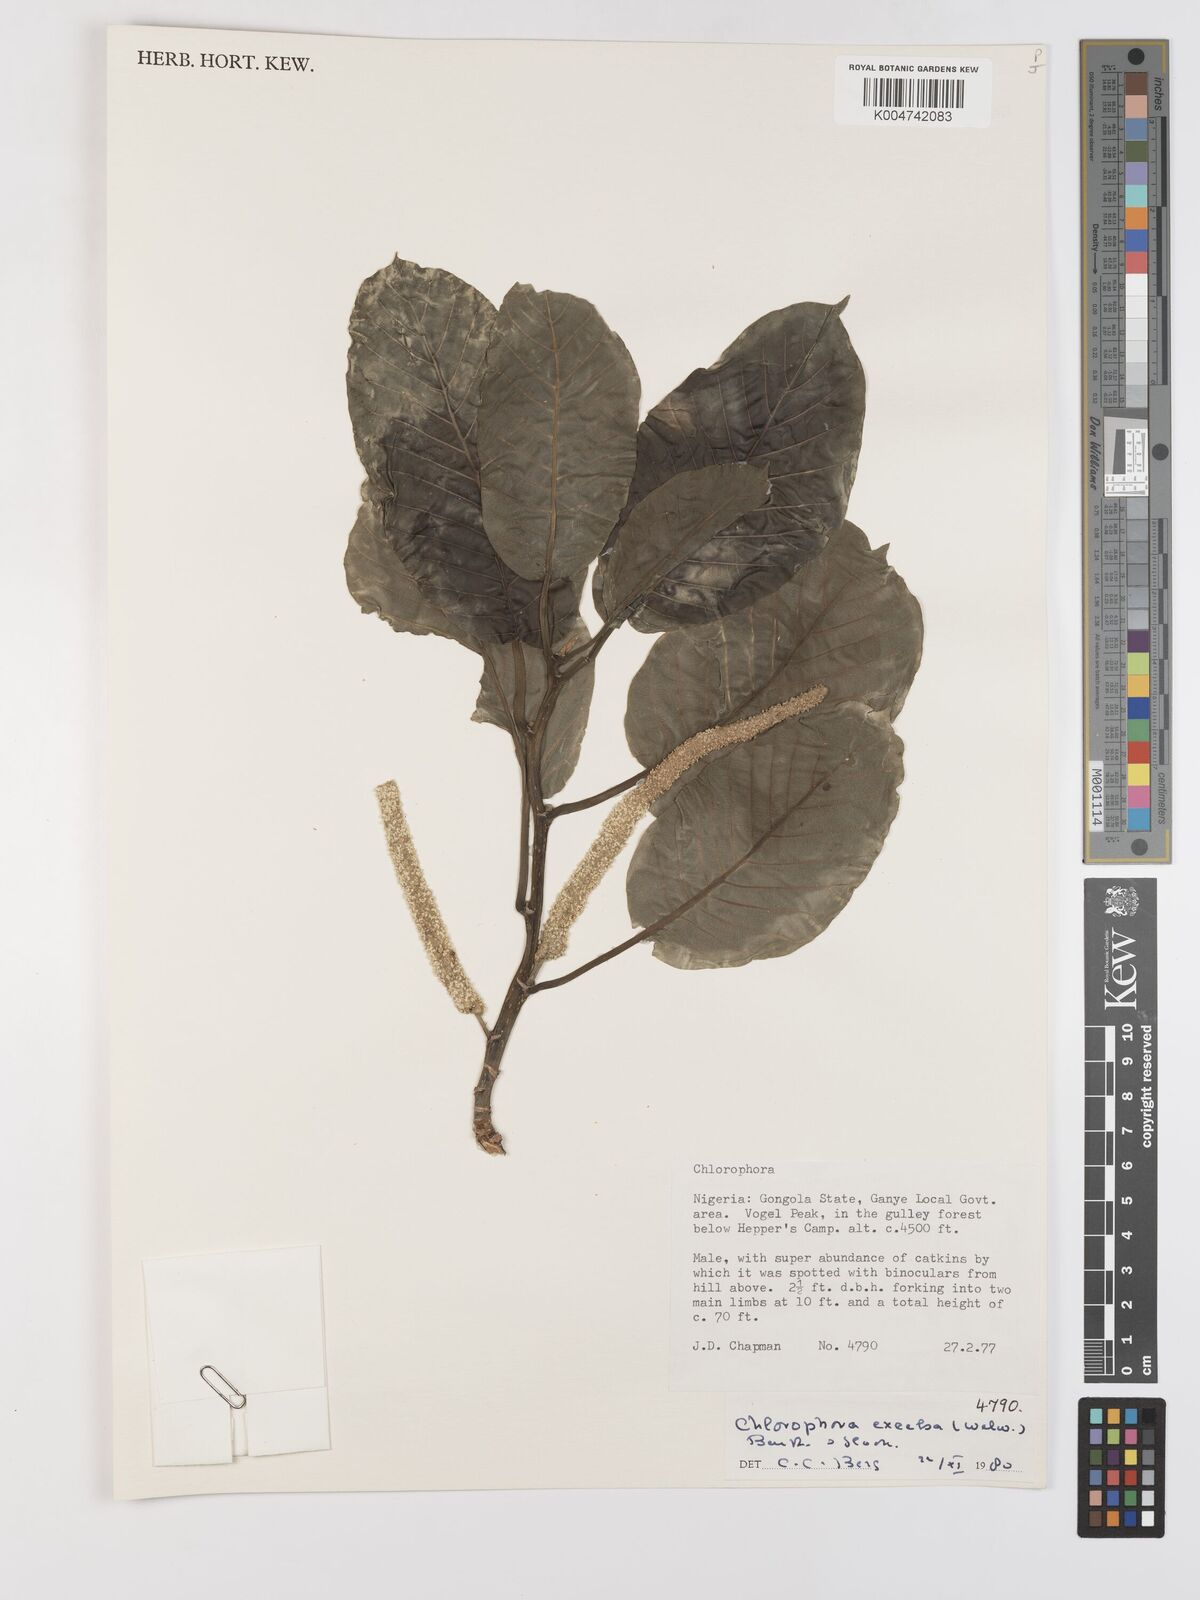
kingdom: Plantae
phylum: Tracheophyta
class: Magnoliopsida
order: Rosales
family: Moraceae
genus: Milicia
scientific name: Milicia excelsa
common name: African teak
